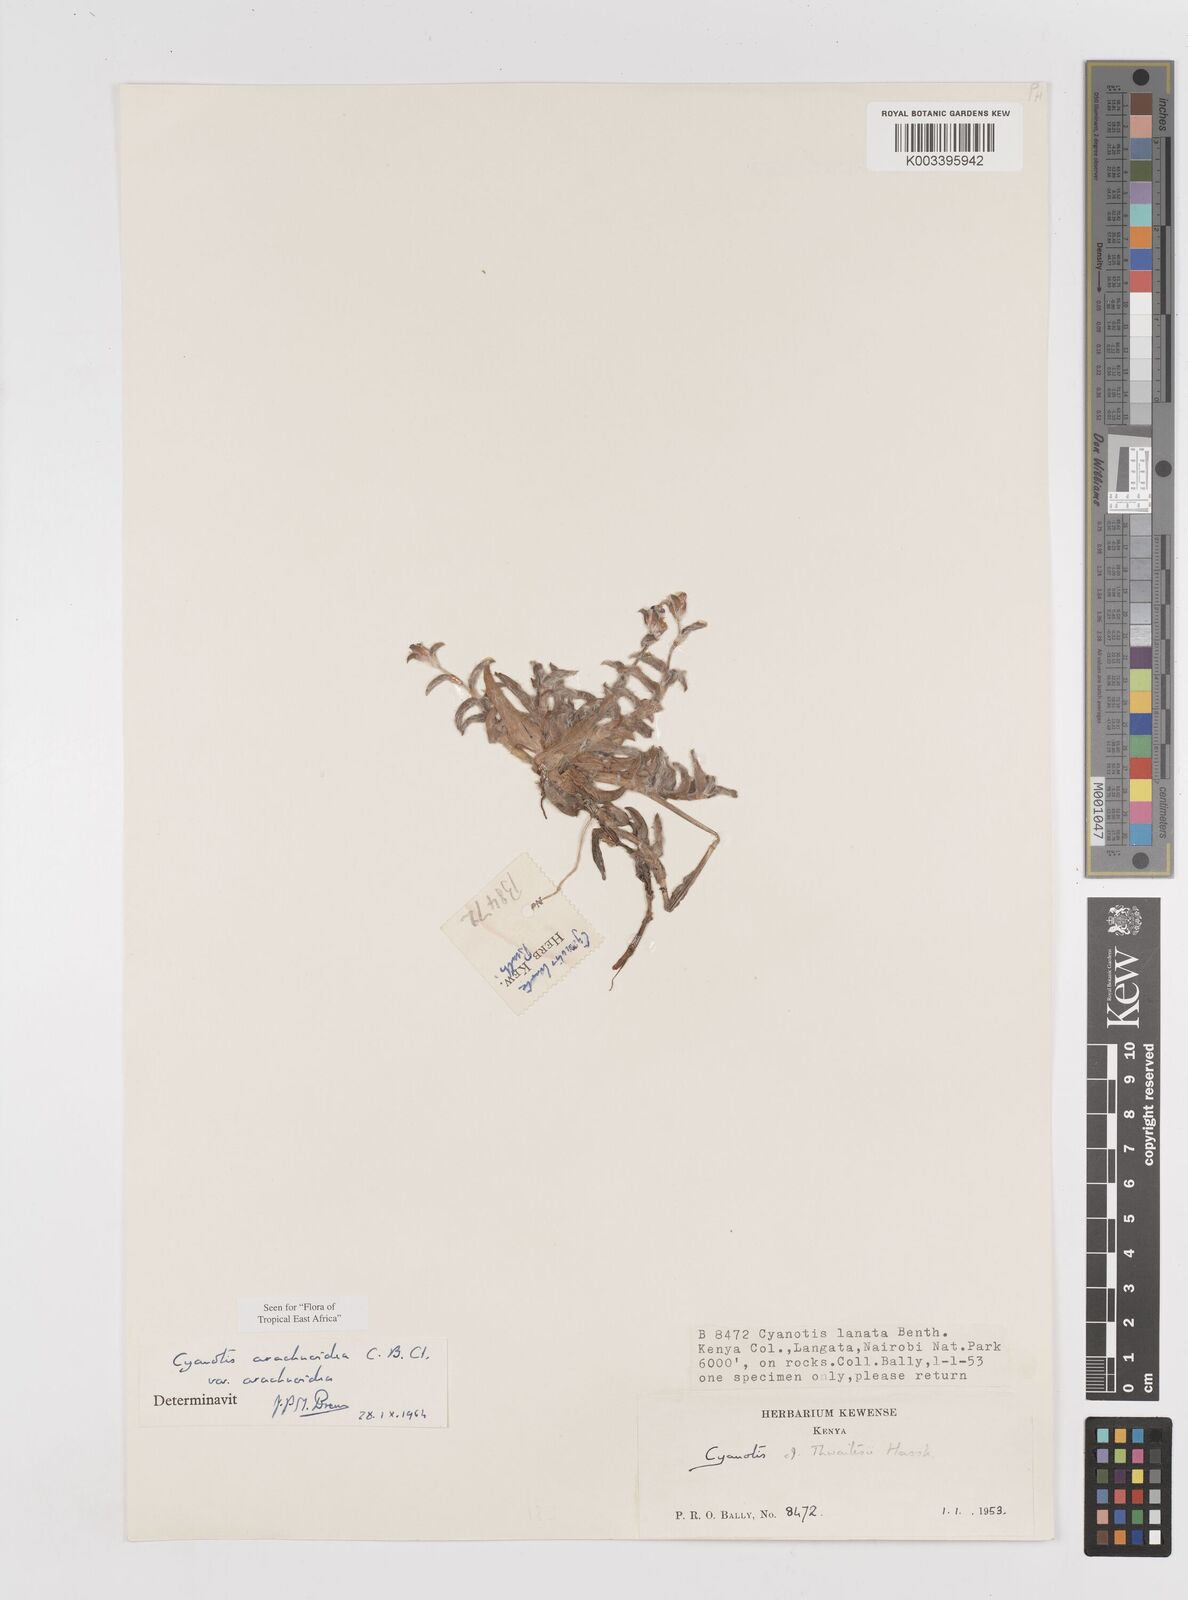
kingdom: Plantae
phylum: Tracheophyta
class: Liliopsida
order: Commelinales
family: Commelinaceae
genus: Cyanotis
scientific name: Cyanotis arachnoidea
